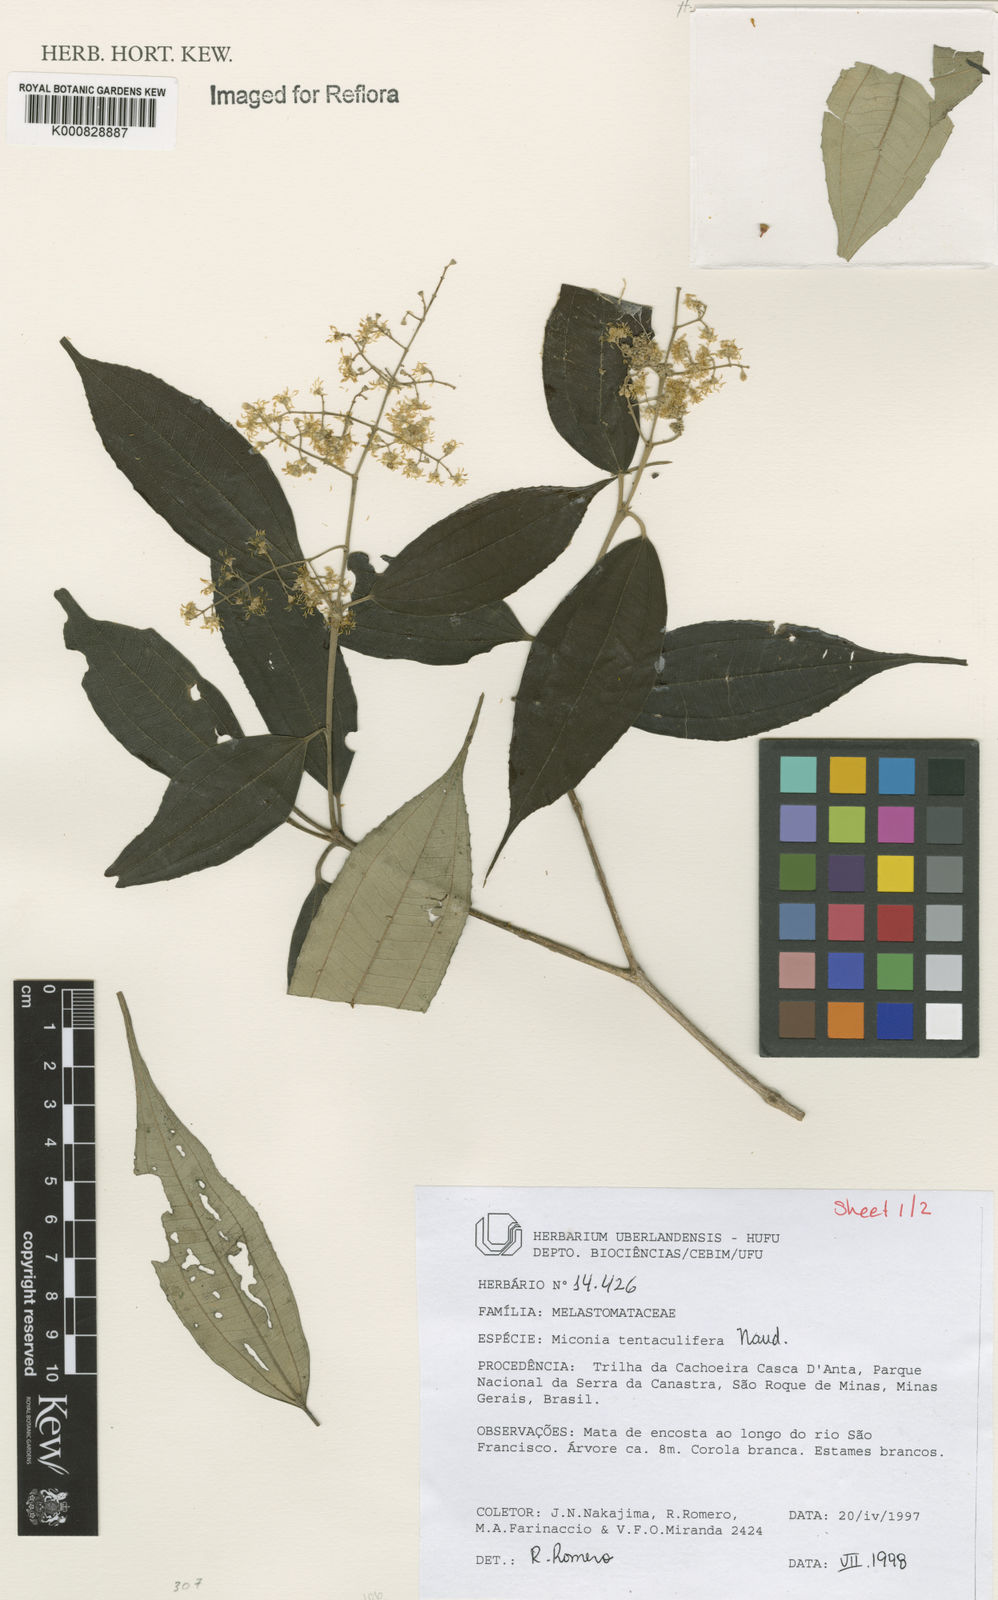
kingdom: Plantae
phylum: Tracheophyta
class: Magnoliopsida
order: Myrtales
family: Melastomataceae
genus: Miconia
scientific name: Miconia tentaculifera
